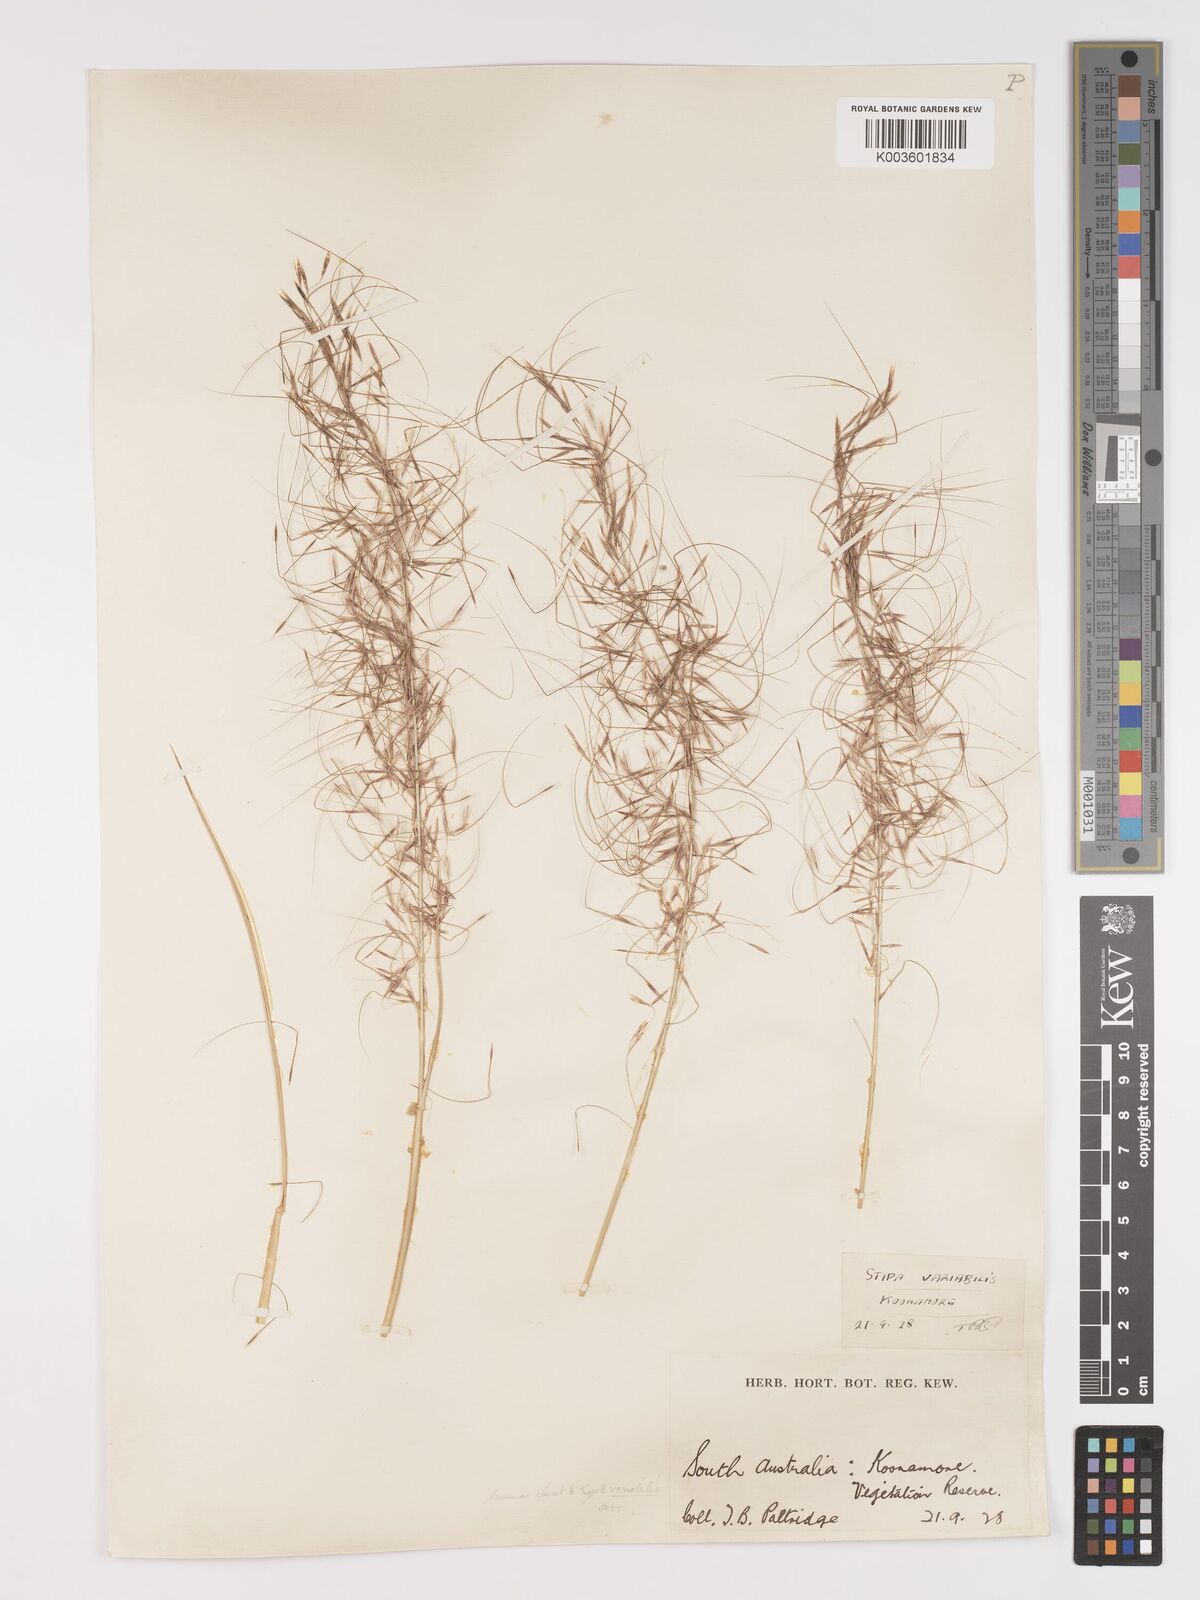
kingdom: Plantae
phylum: Tracheophyta
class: Liliopsida
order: Poales
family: Poaceae
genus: Austrostipa
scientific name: Austrostipa nitida
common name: Balcarra grass
